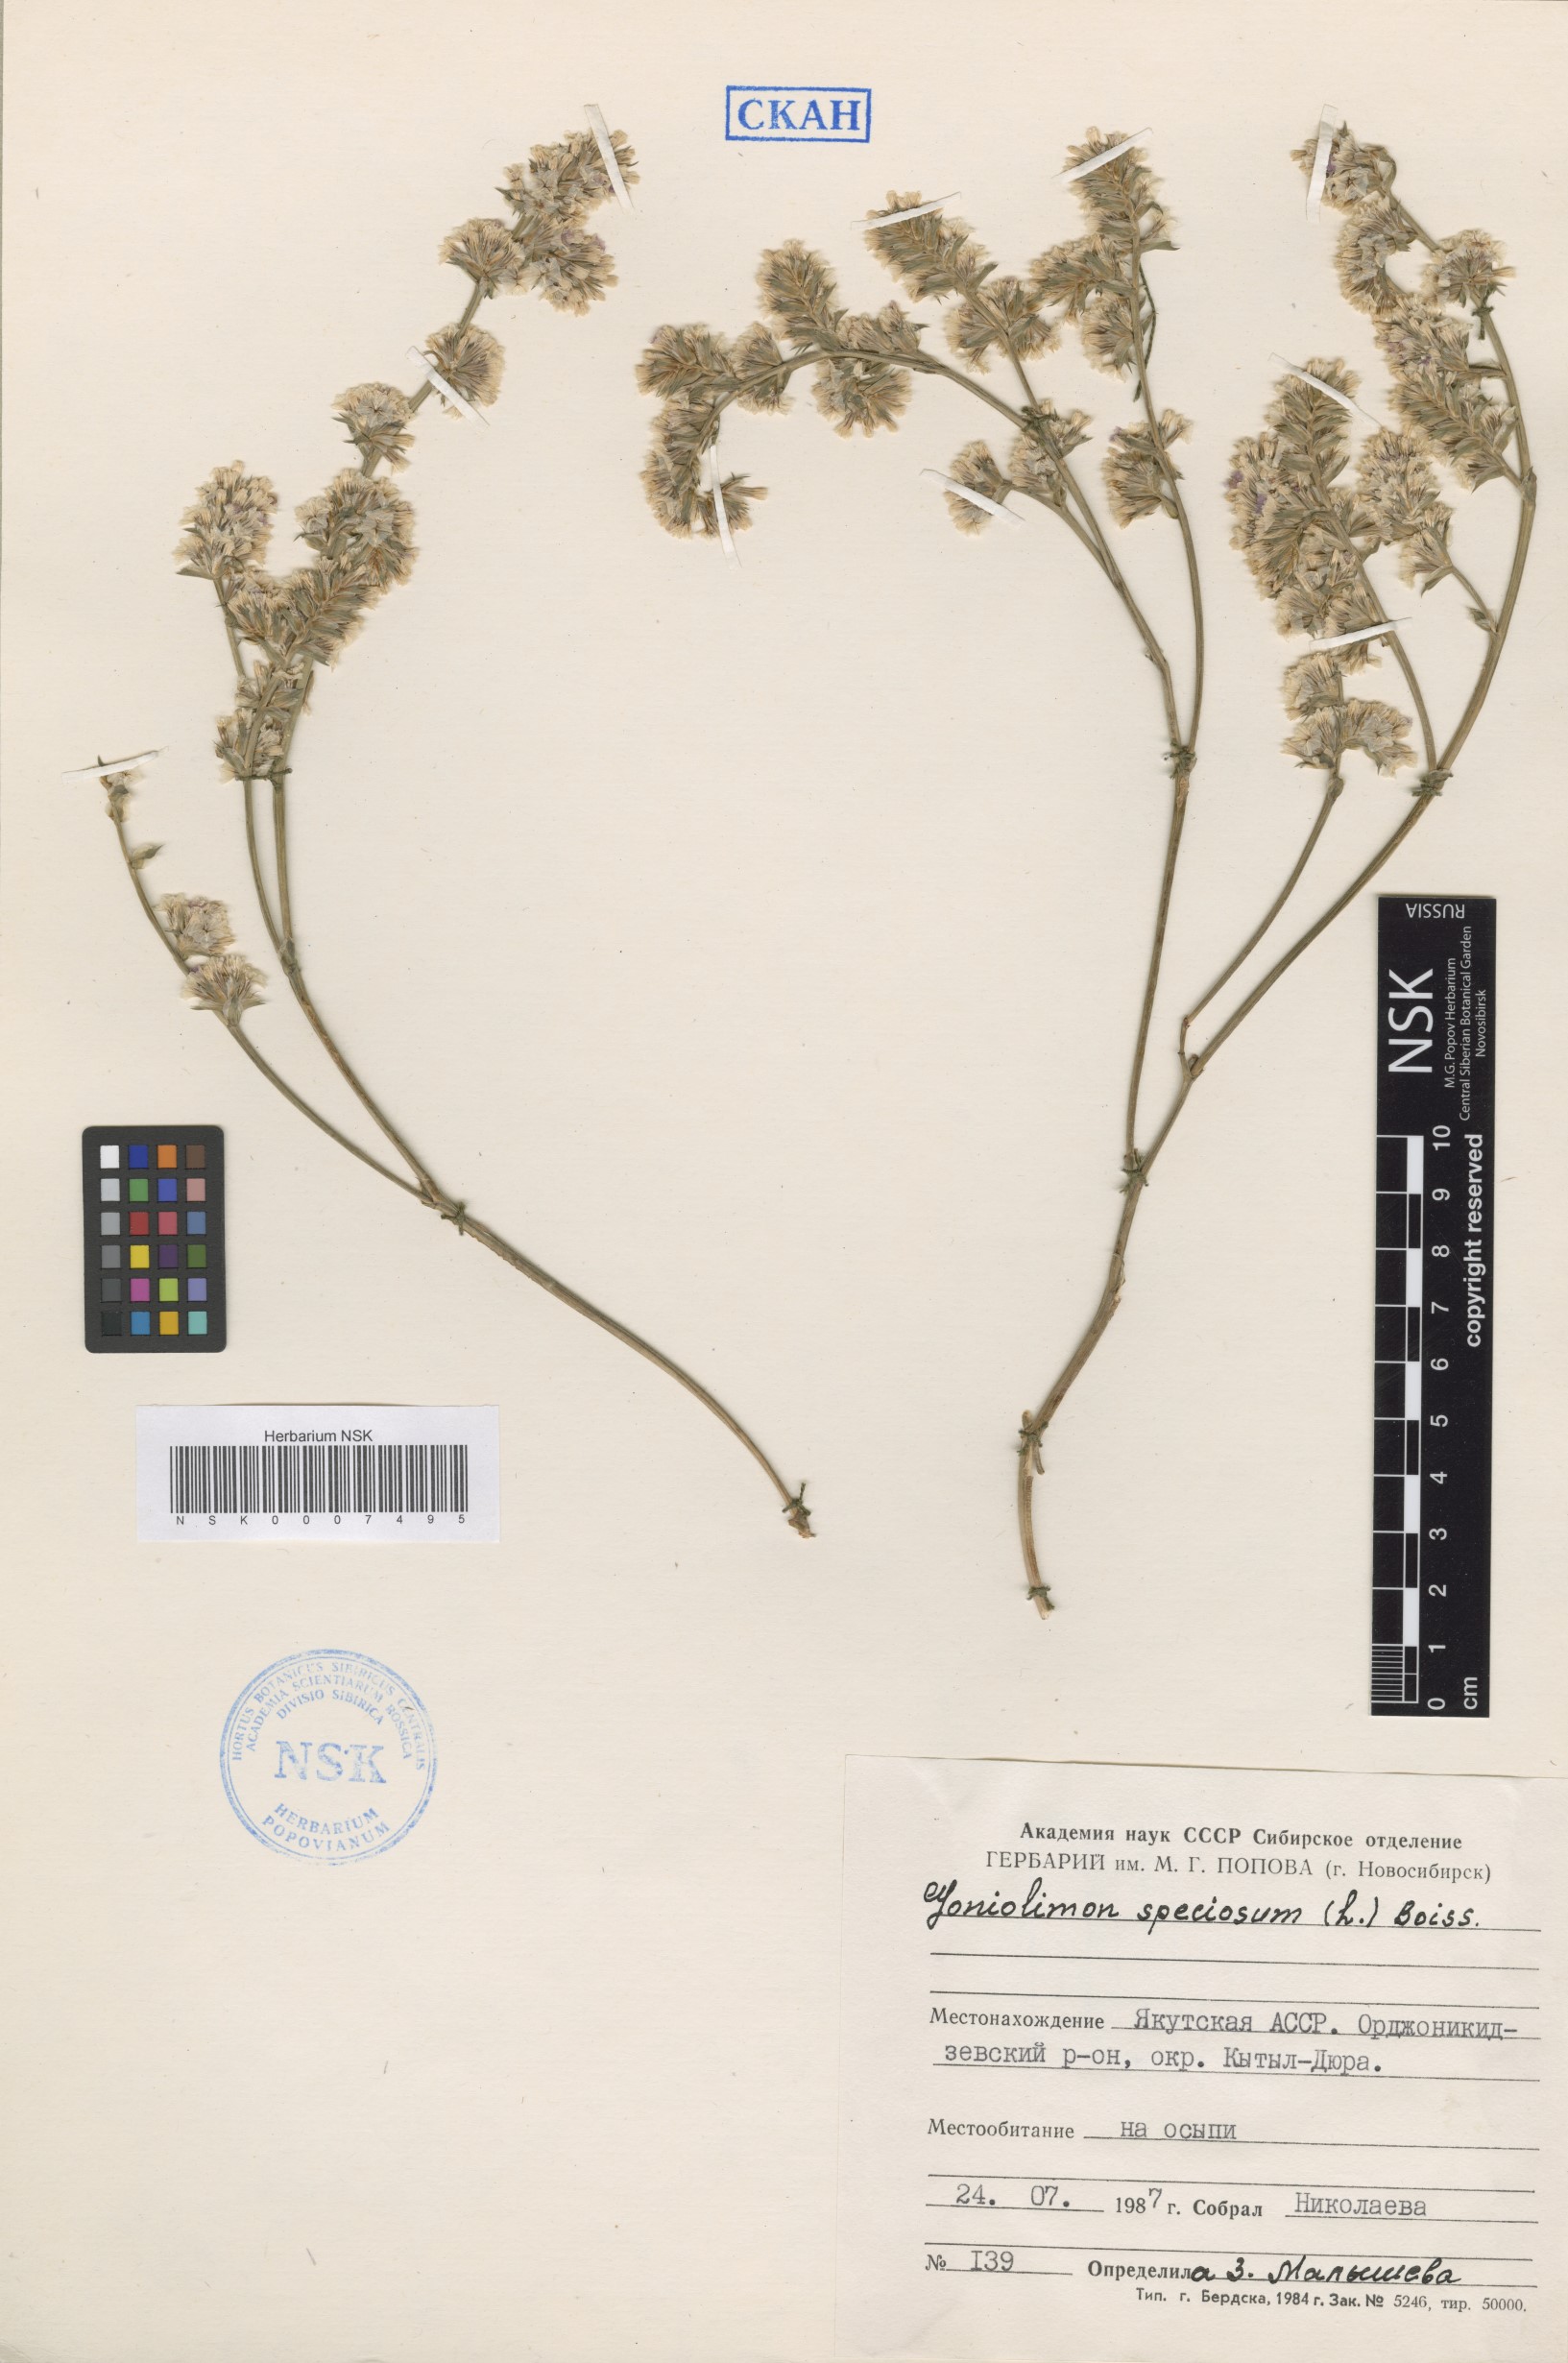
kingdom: Plantae
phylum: Tracheophyta
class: Magnoliopsida
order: Caryophyllales
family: Plumbaginaceae
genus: Goniolimon
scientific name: Goniolimon speciosum
